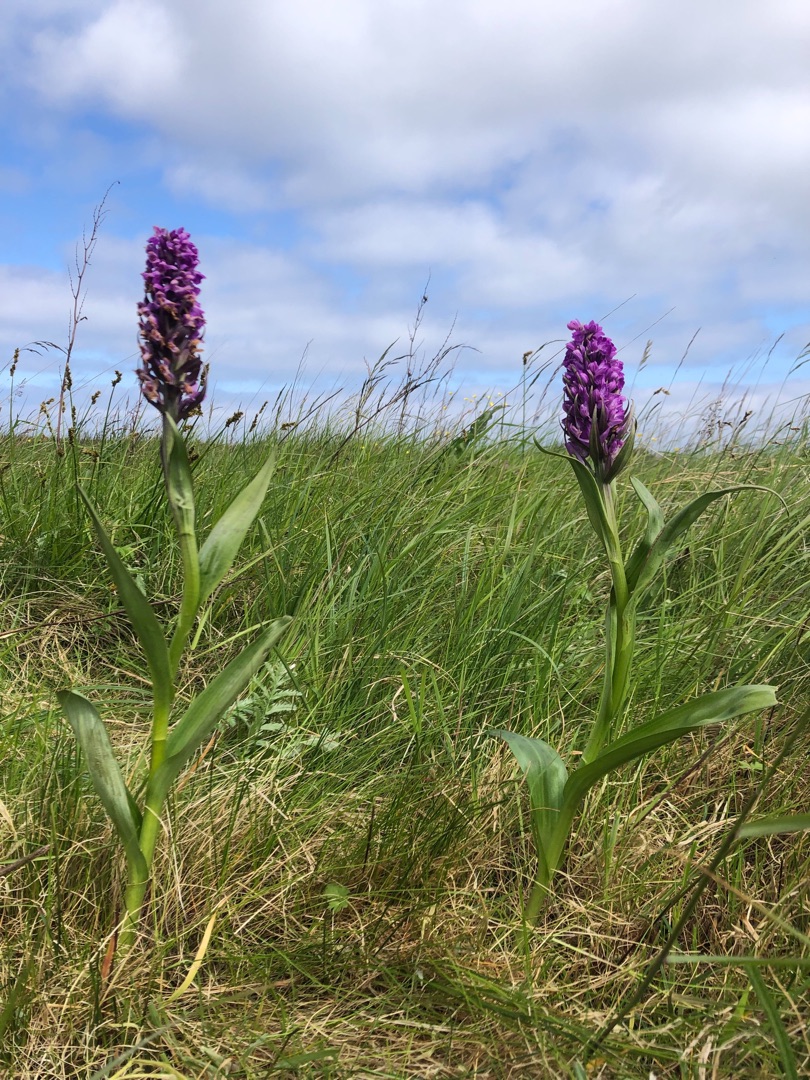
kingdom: Plantae
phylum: Tracheophyta
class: Liliopsida
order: Asparagales
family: Orchidaceae
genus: Dactylorhiza
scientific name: Dactylorhiza incarnata
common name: Kødfarvet gøgeurt
